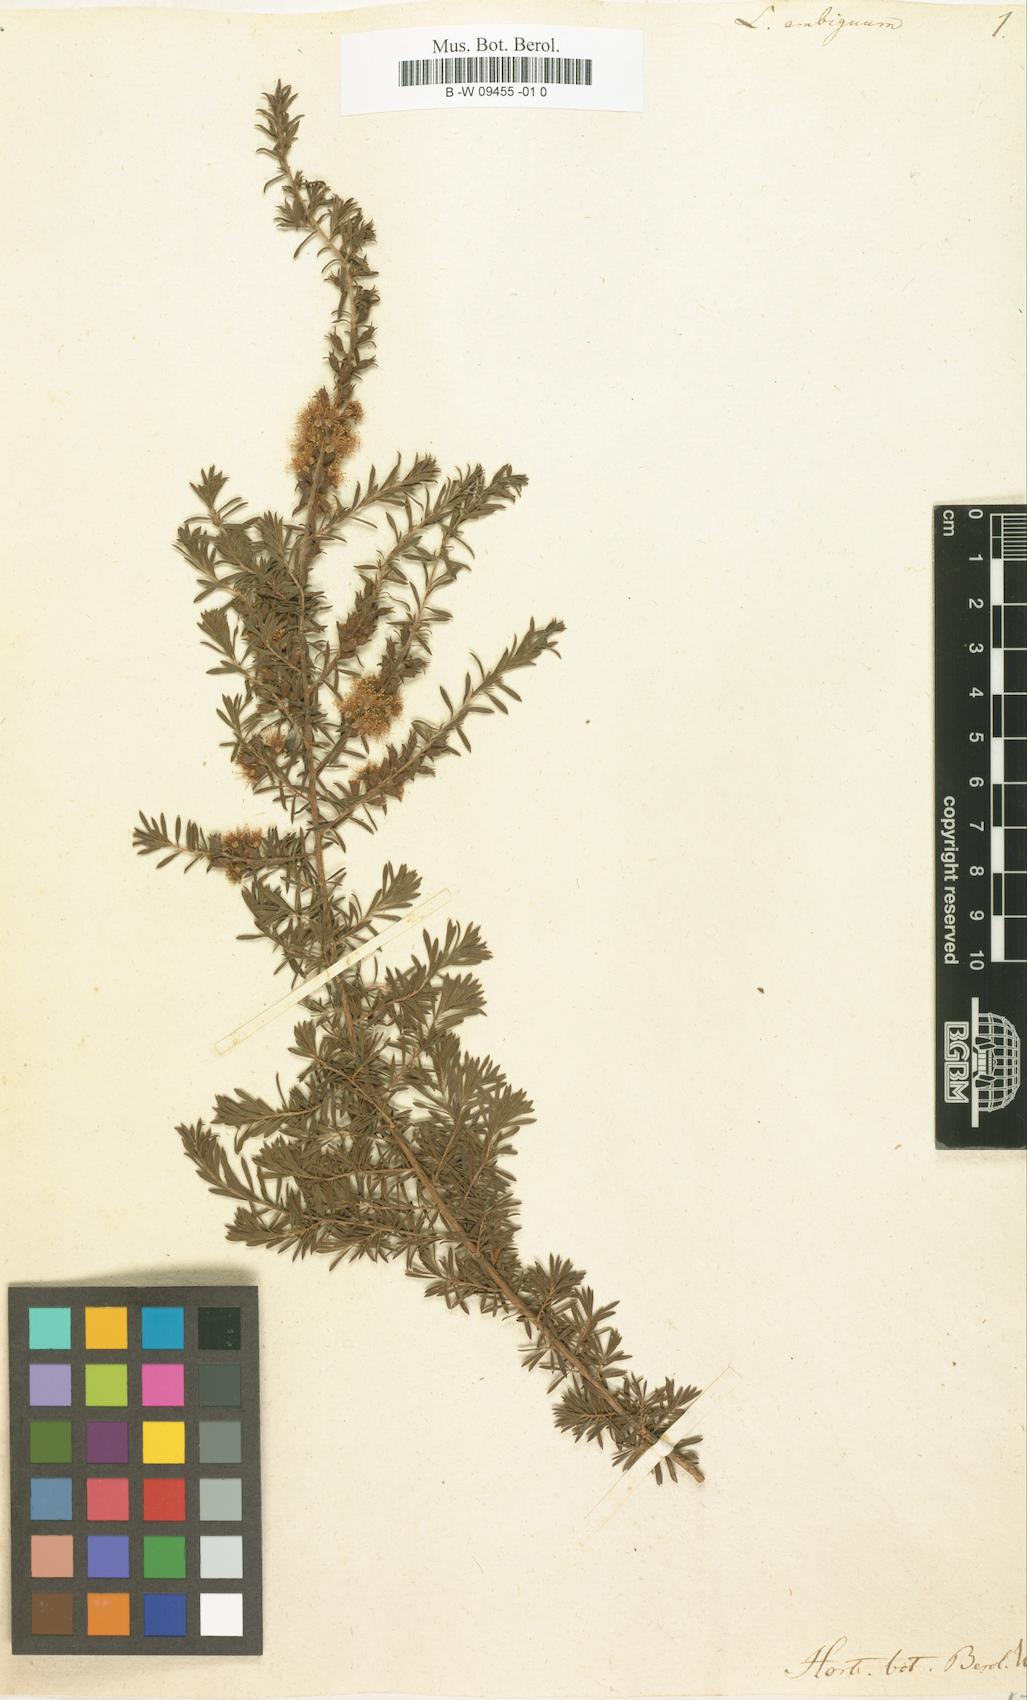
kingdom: Plantae
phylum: Tracheophyta
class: Magnoliopsida
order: Myrtales
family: Myrtaceae
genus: Kunzea
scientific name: Kunzea ambigua
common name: Tickbush
